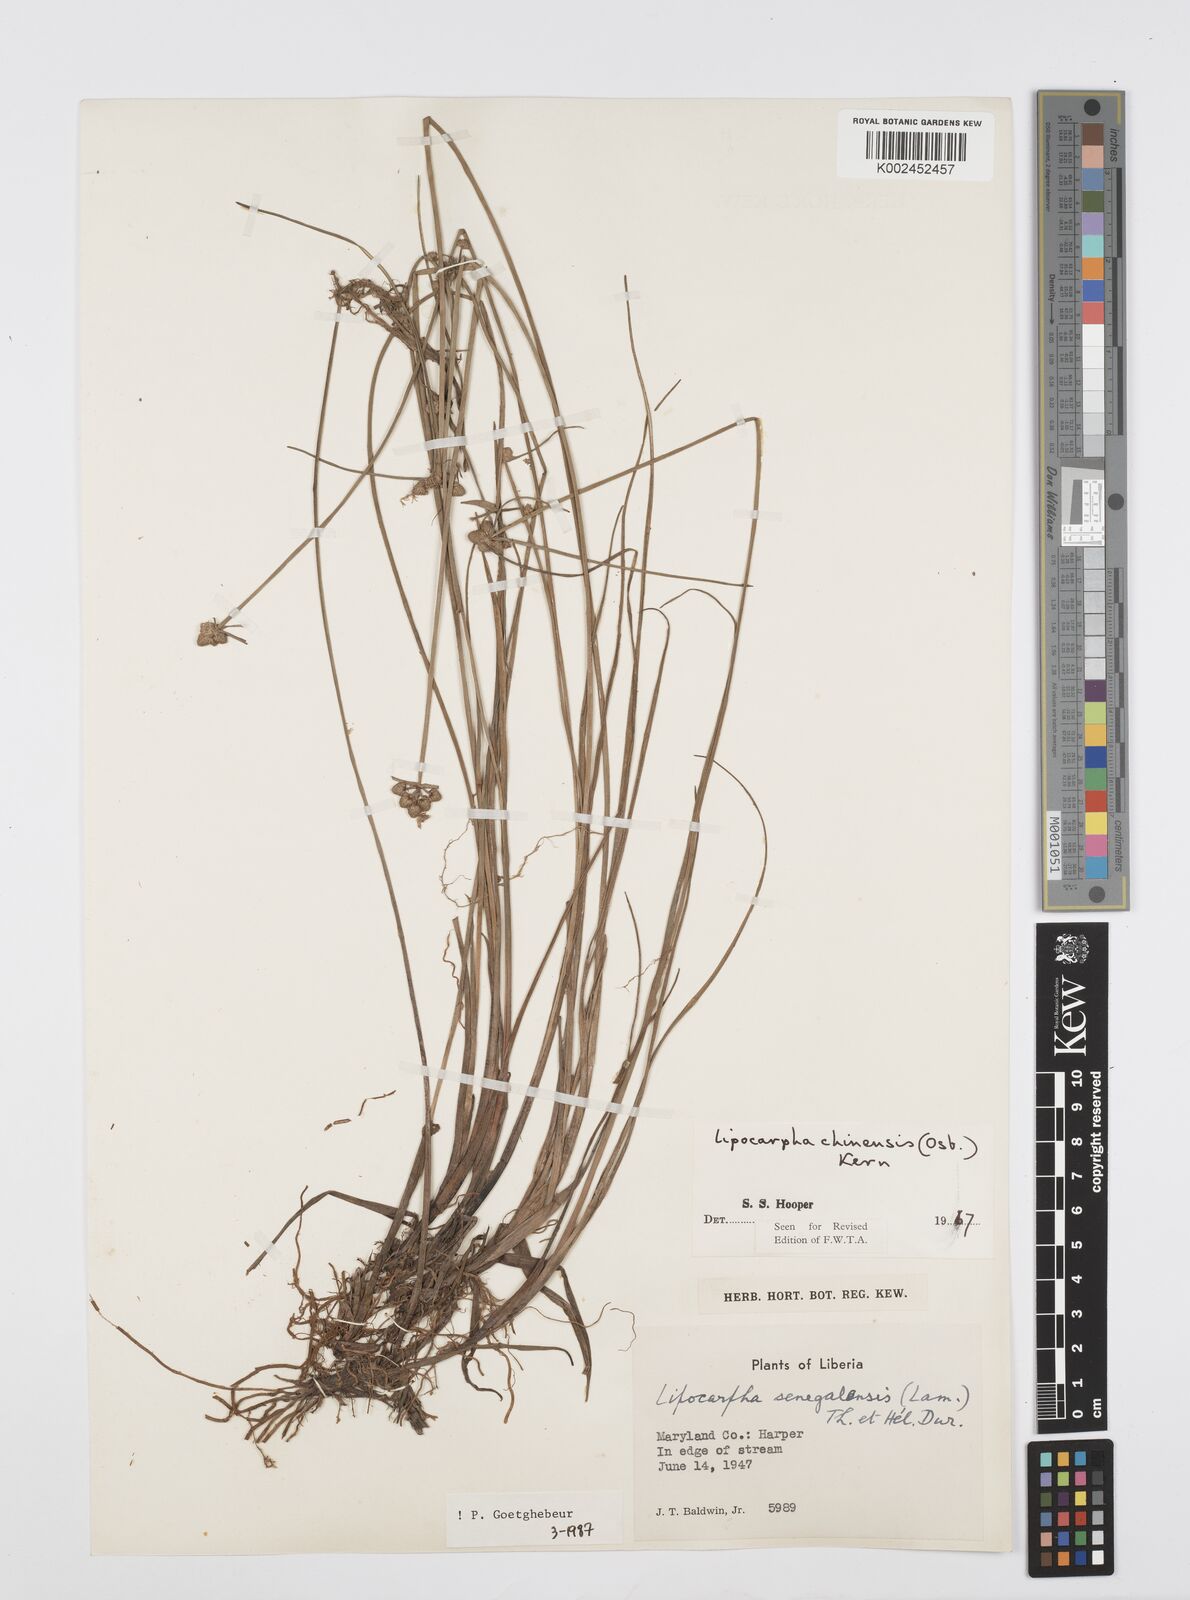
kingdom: Plantae
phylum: Tracheophyta
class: Liliopsida
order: Poales
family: Cyperaceae
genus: Cyperus
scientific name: Cyperus albescens
